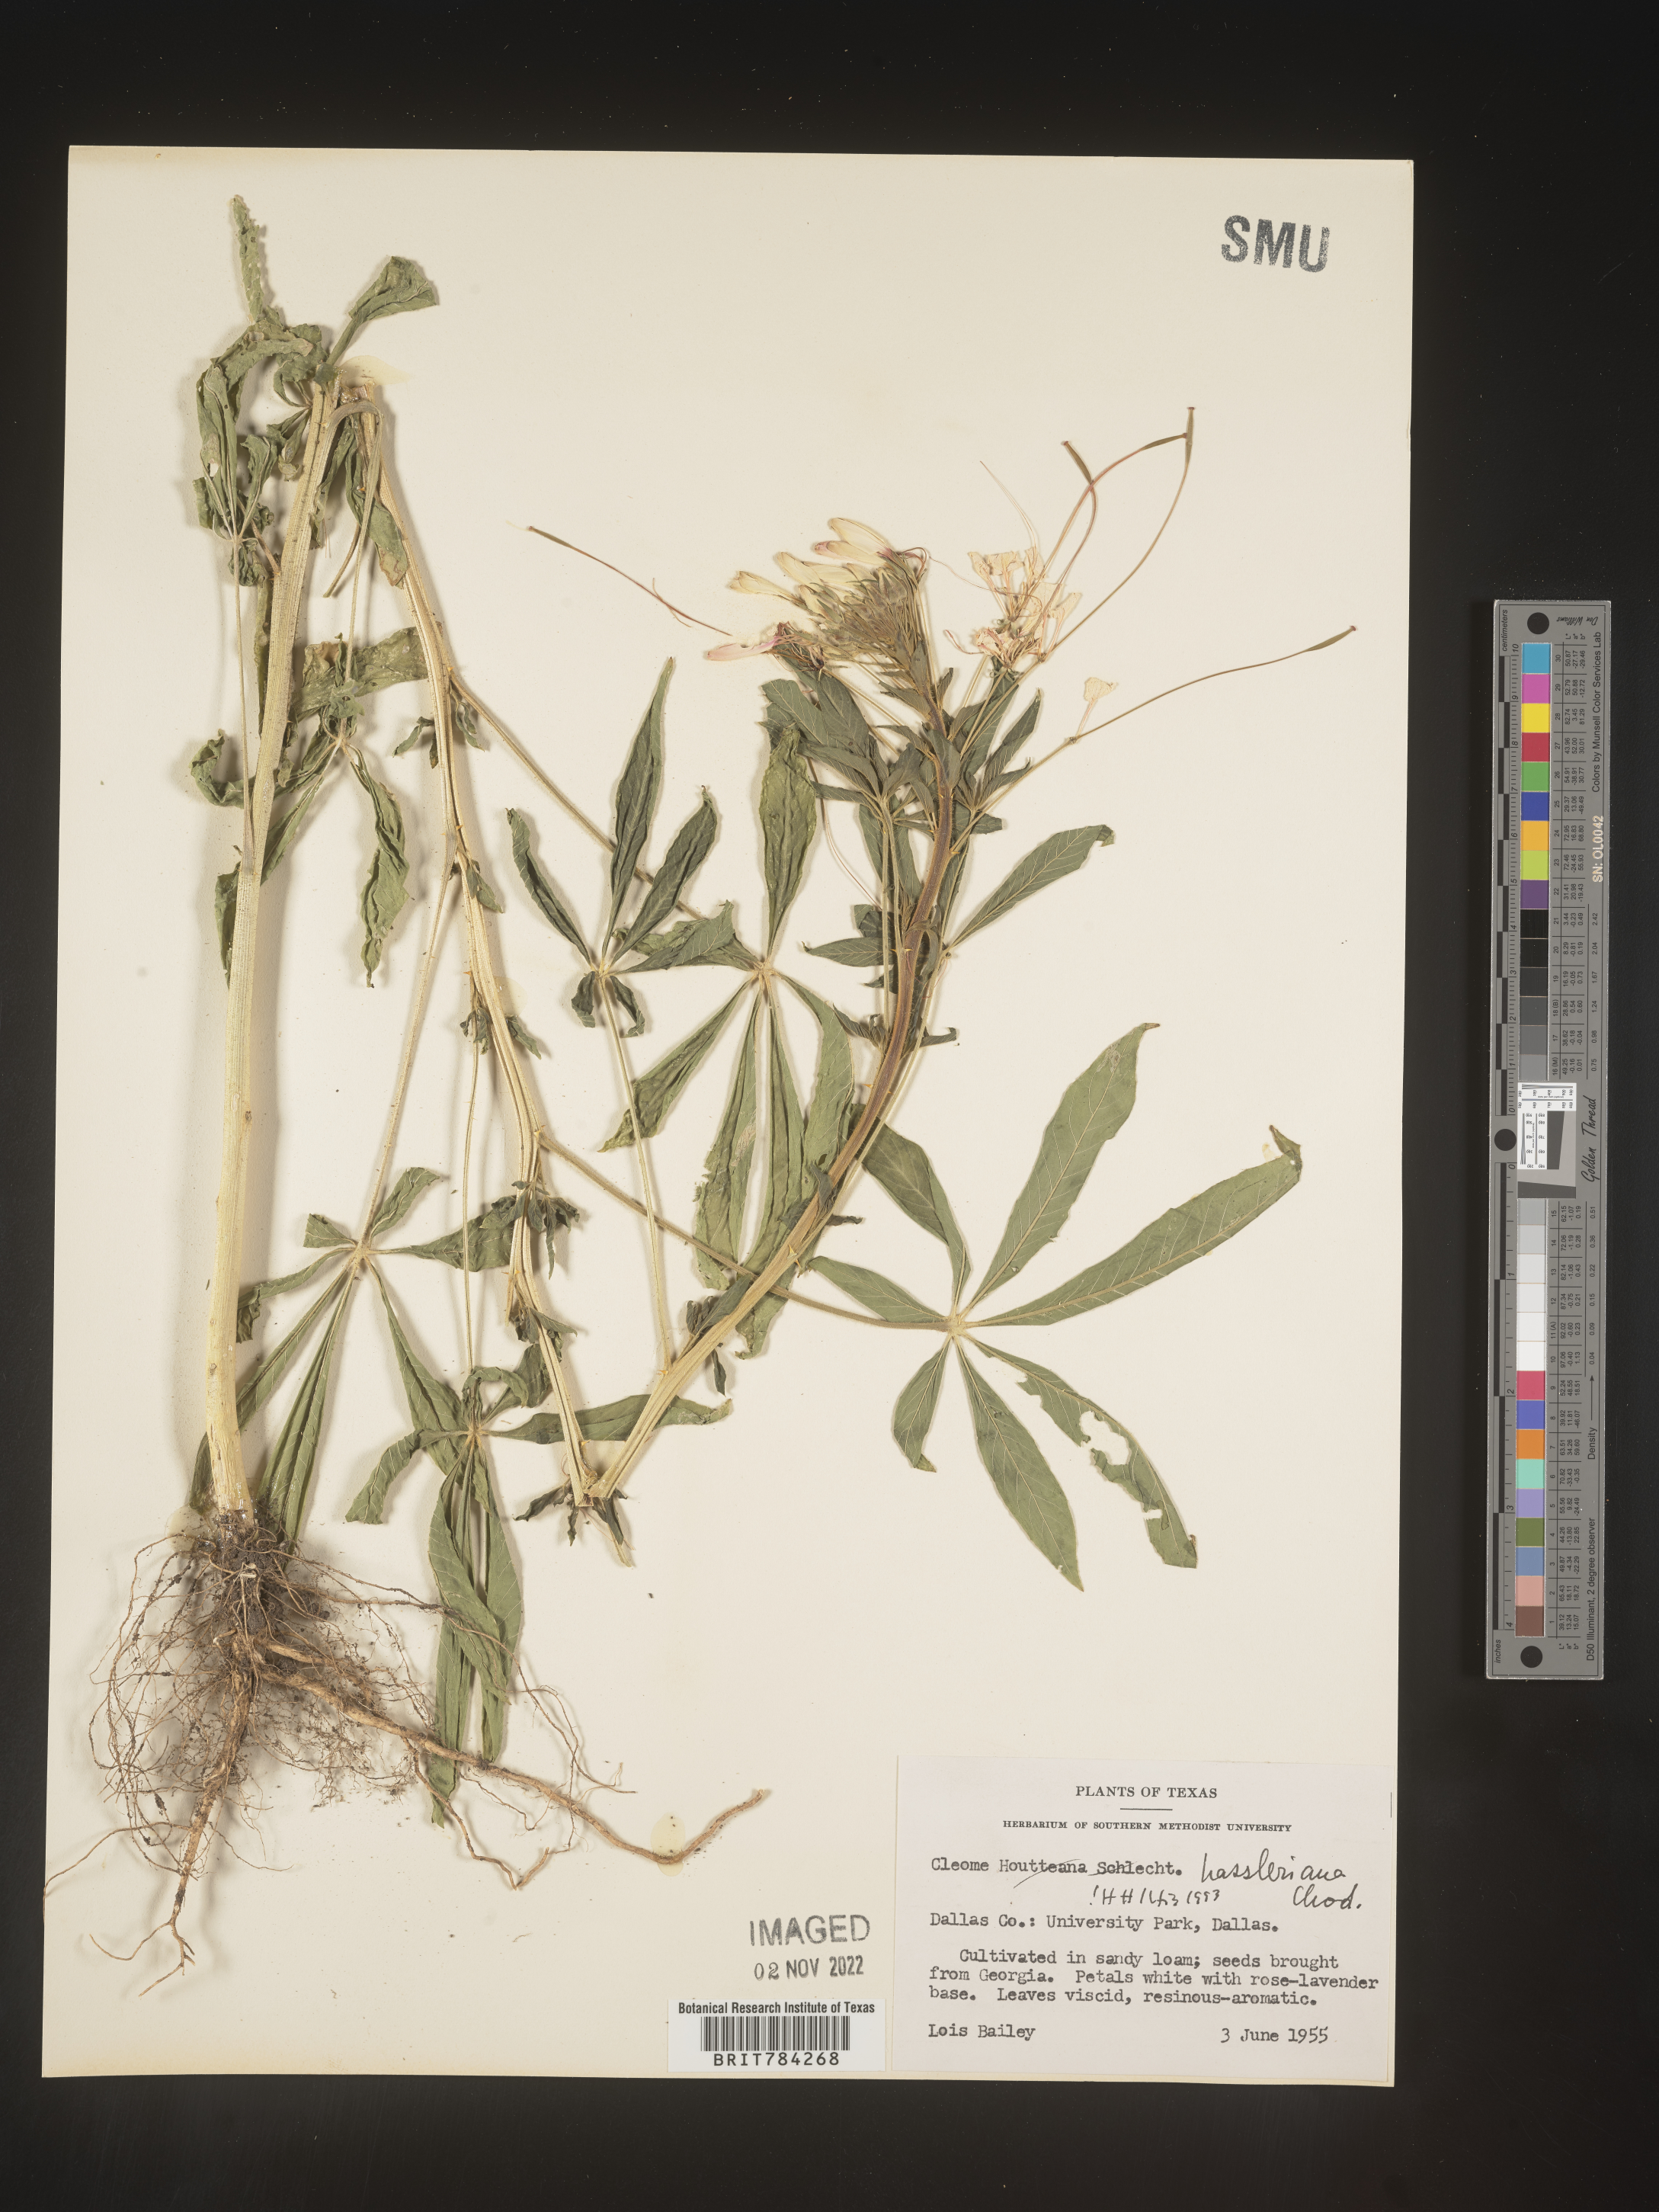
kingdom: Plantae
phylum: Tracheophyta
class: Magnoliopsida
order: Brassicales
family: Cleomaceae
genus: Cleome
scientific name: Cleome
